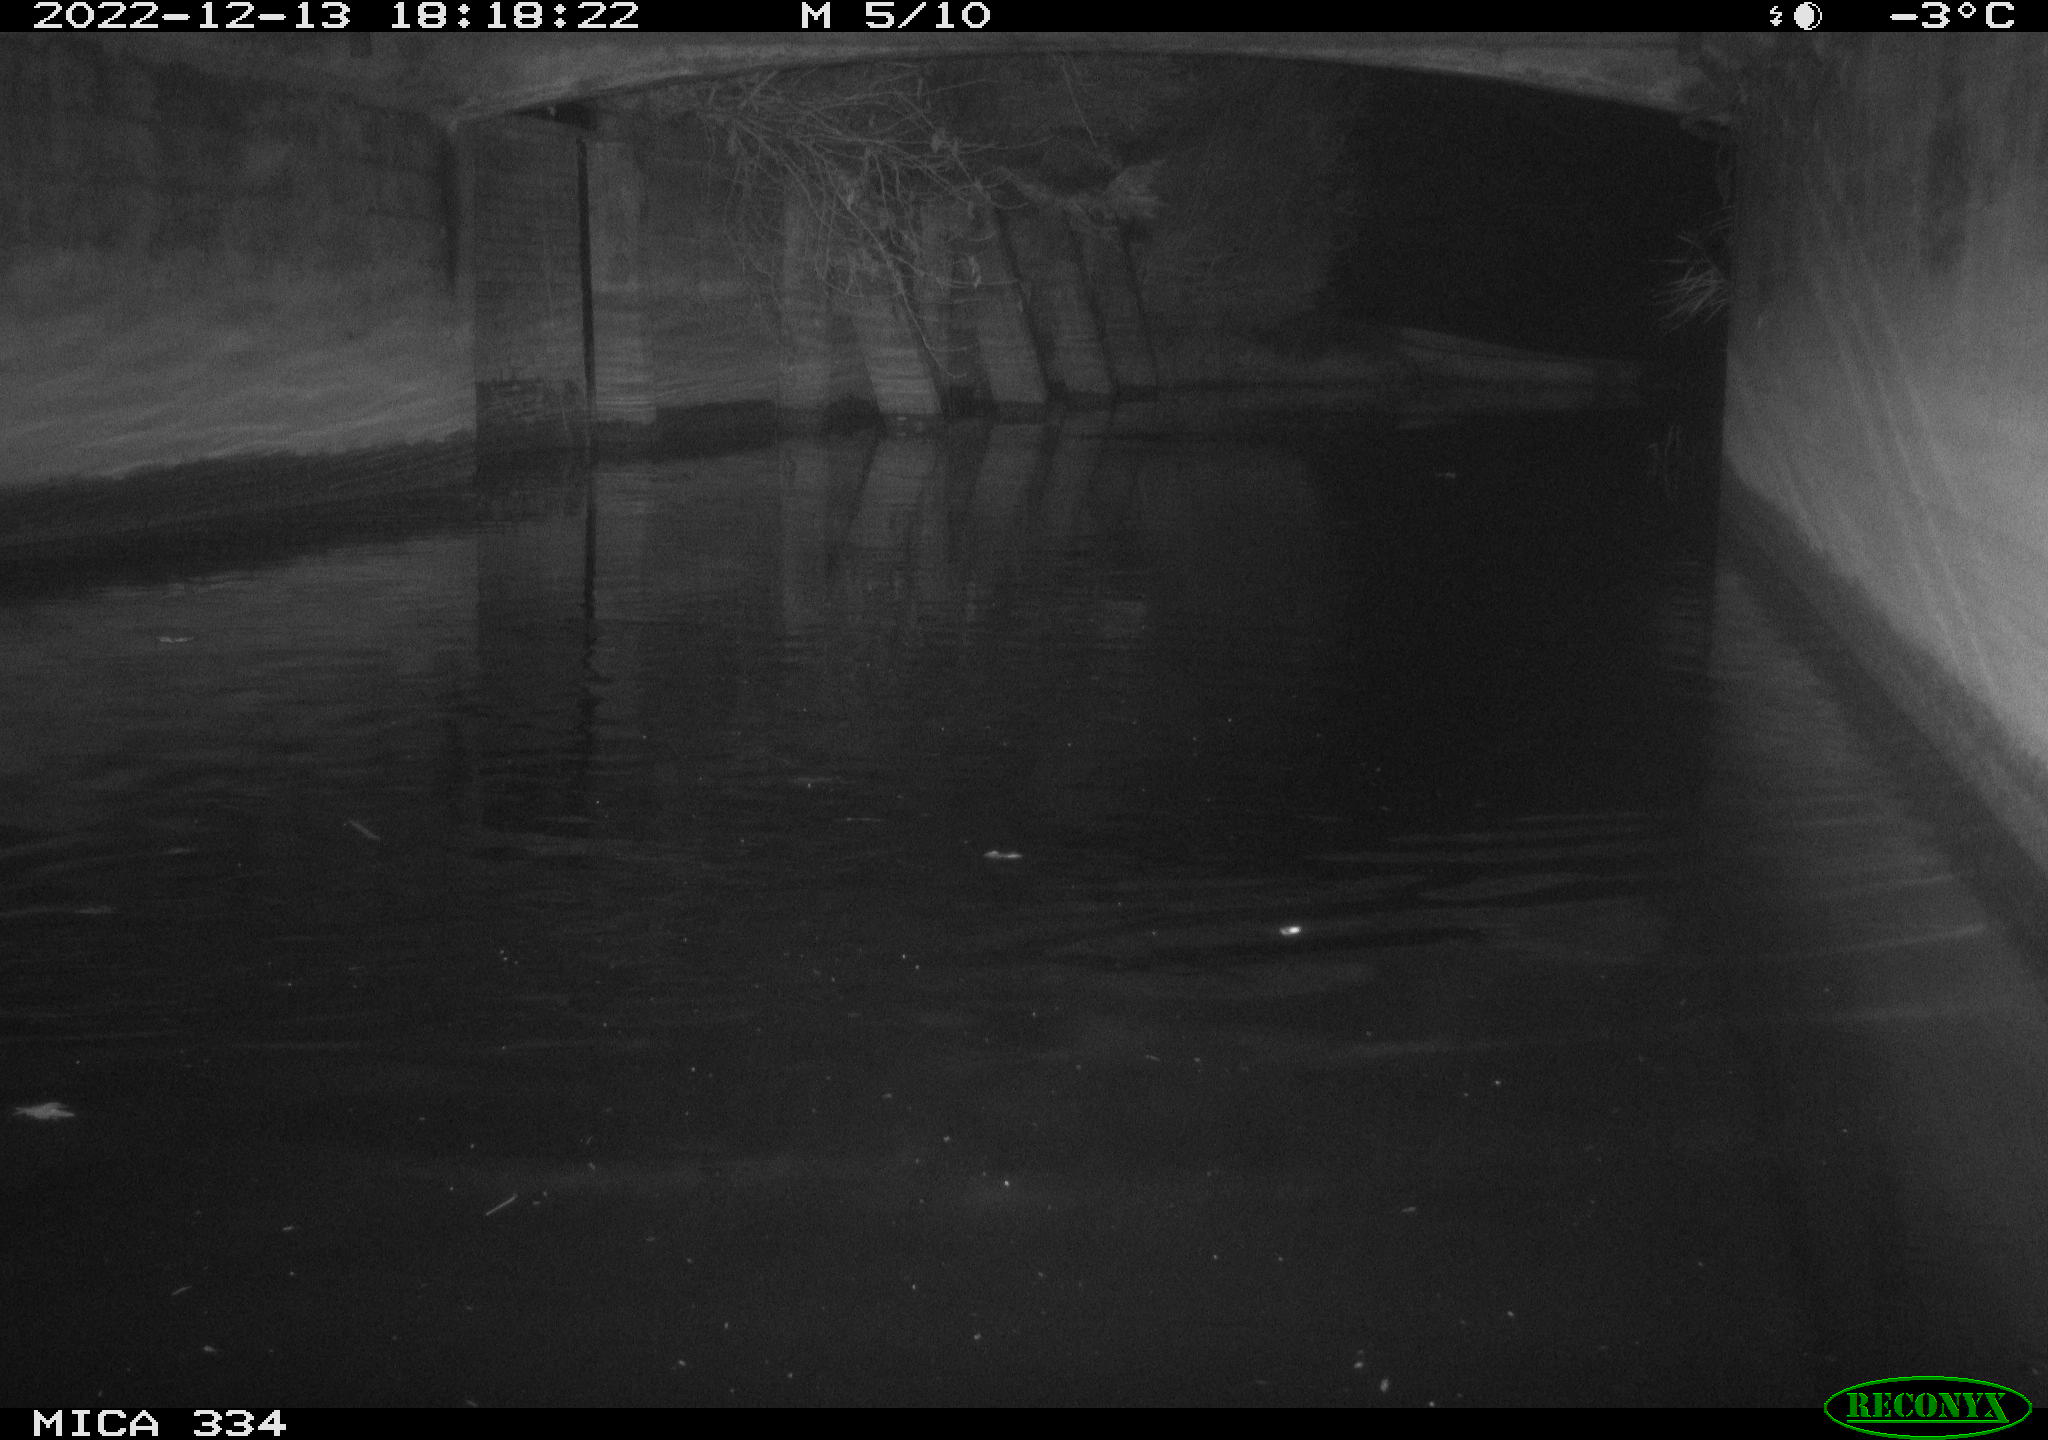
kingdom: Animalia
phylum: Chordata
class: Aves
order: Anseriformes
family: Anatidae
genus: Anas
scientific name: Anas
